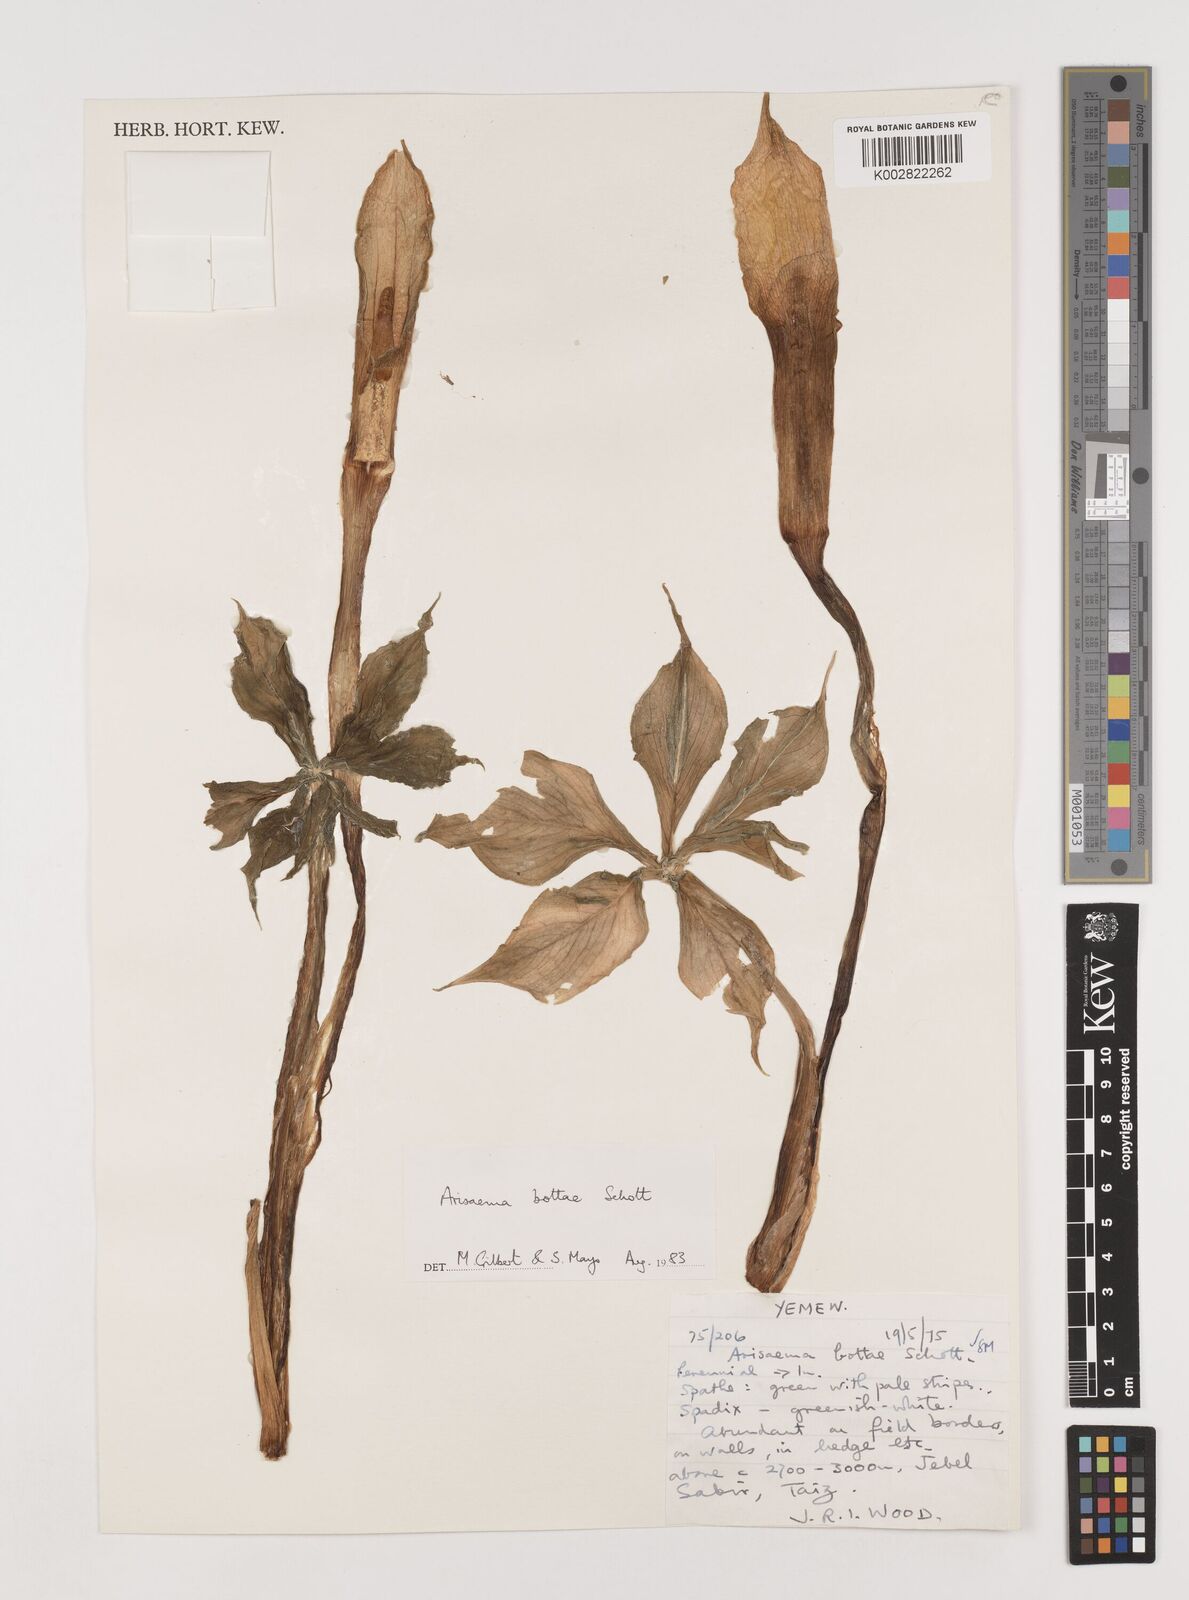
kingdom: Plantae
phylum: Tracheophyta
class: Liliopsida
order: Alismatales
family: Araceae
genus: Arisaema
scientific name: Arisaema bottae
